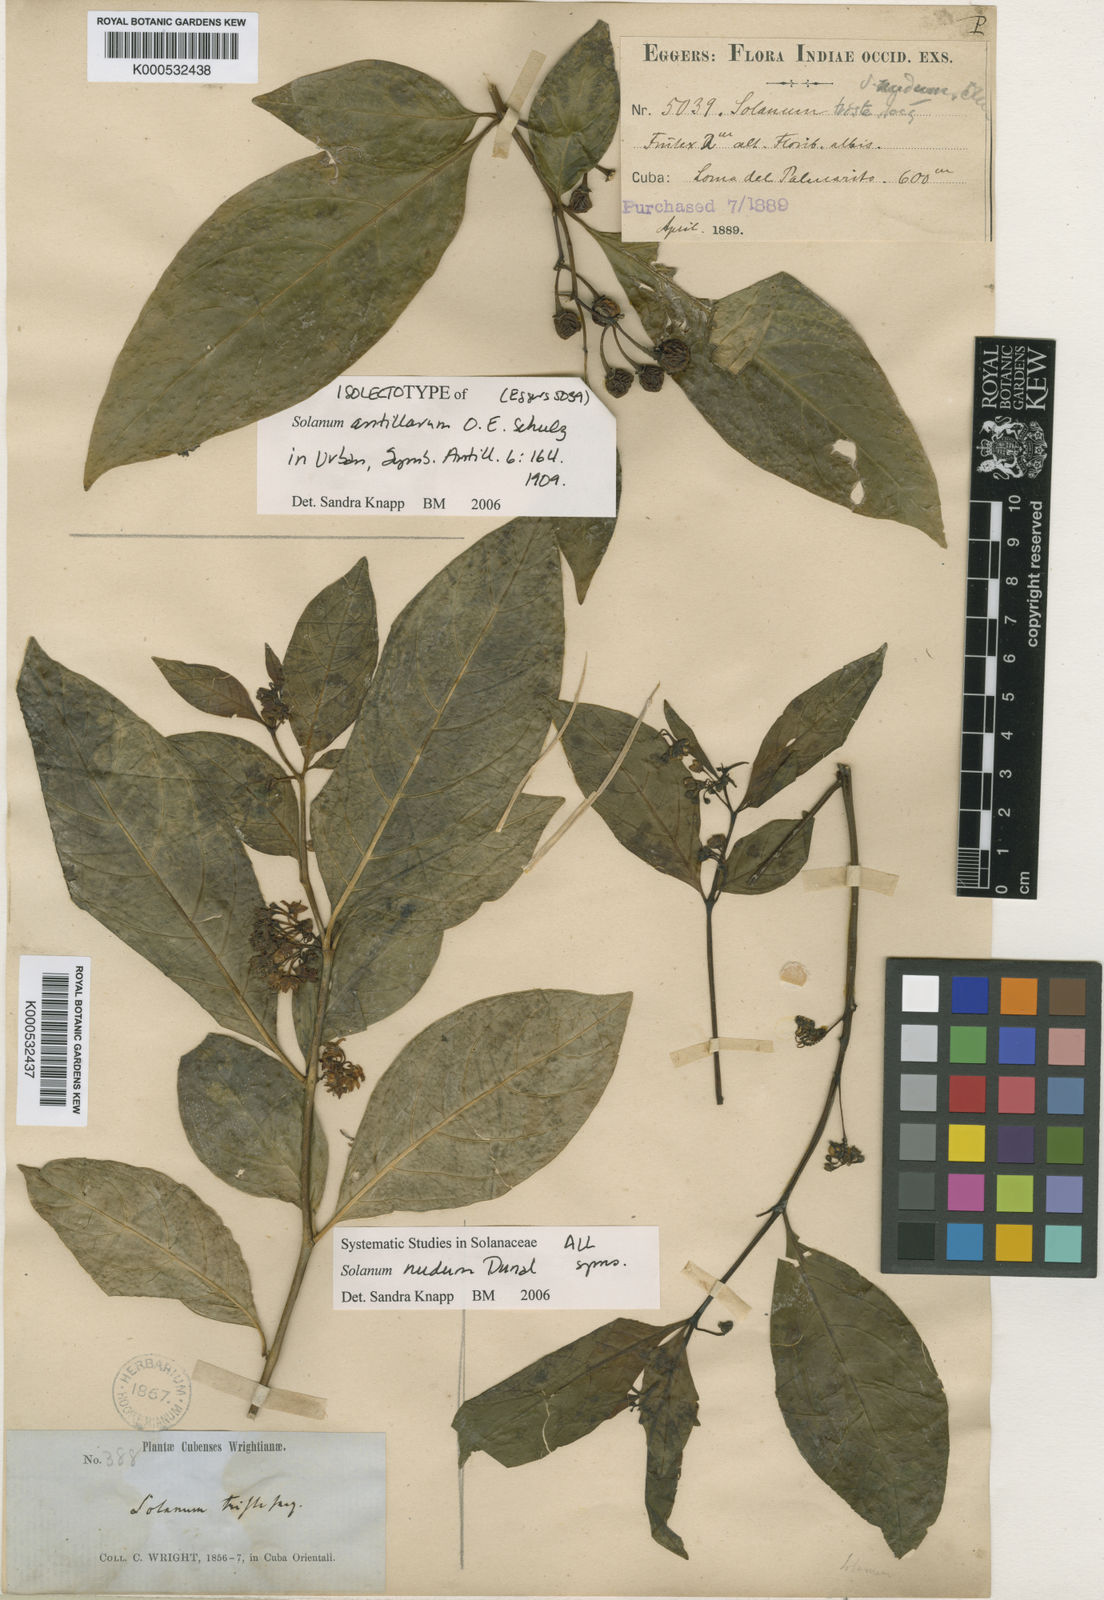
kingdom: Plantae
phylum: Tracheophyta
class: Magnoliopsida
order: Solanales
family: Solanaceae
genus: Solanum
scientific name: Solanum nudum
